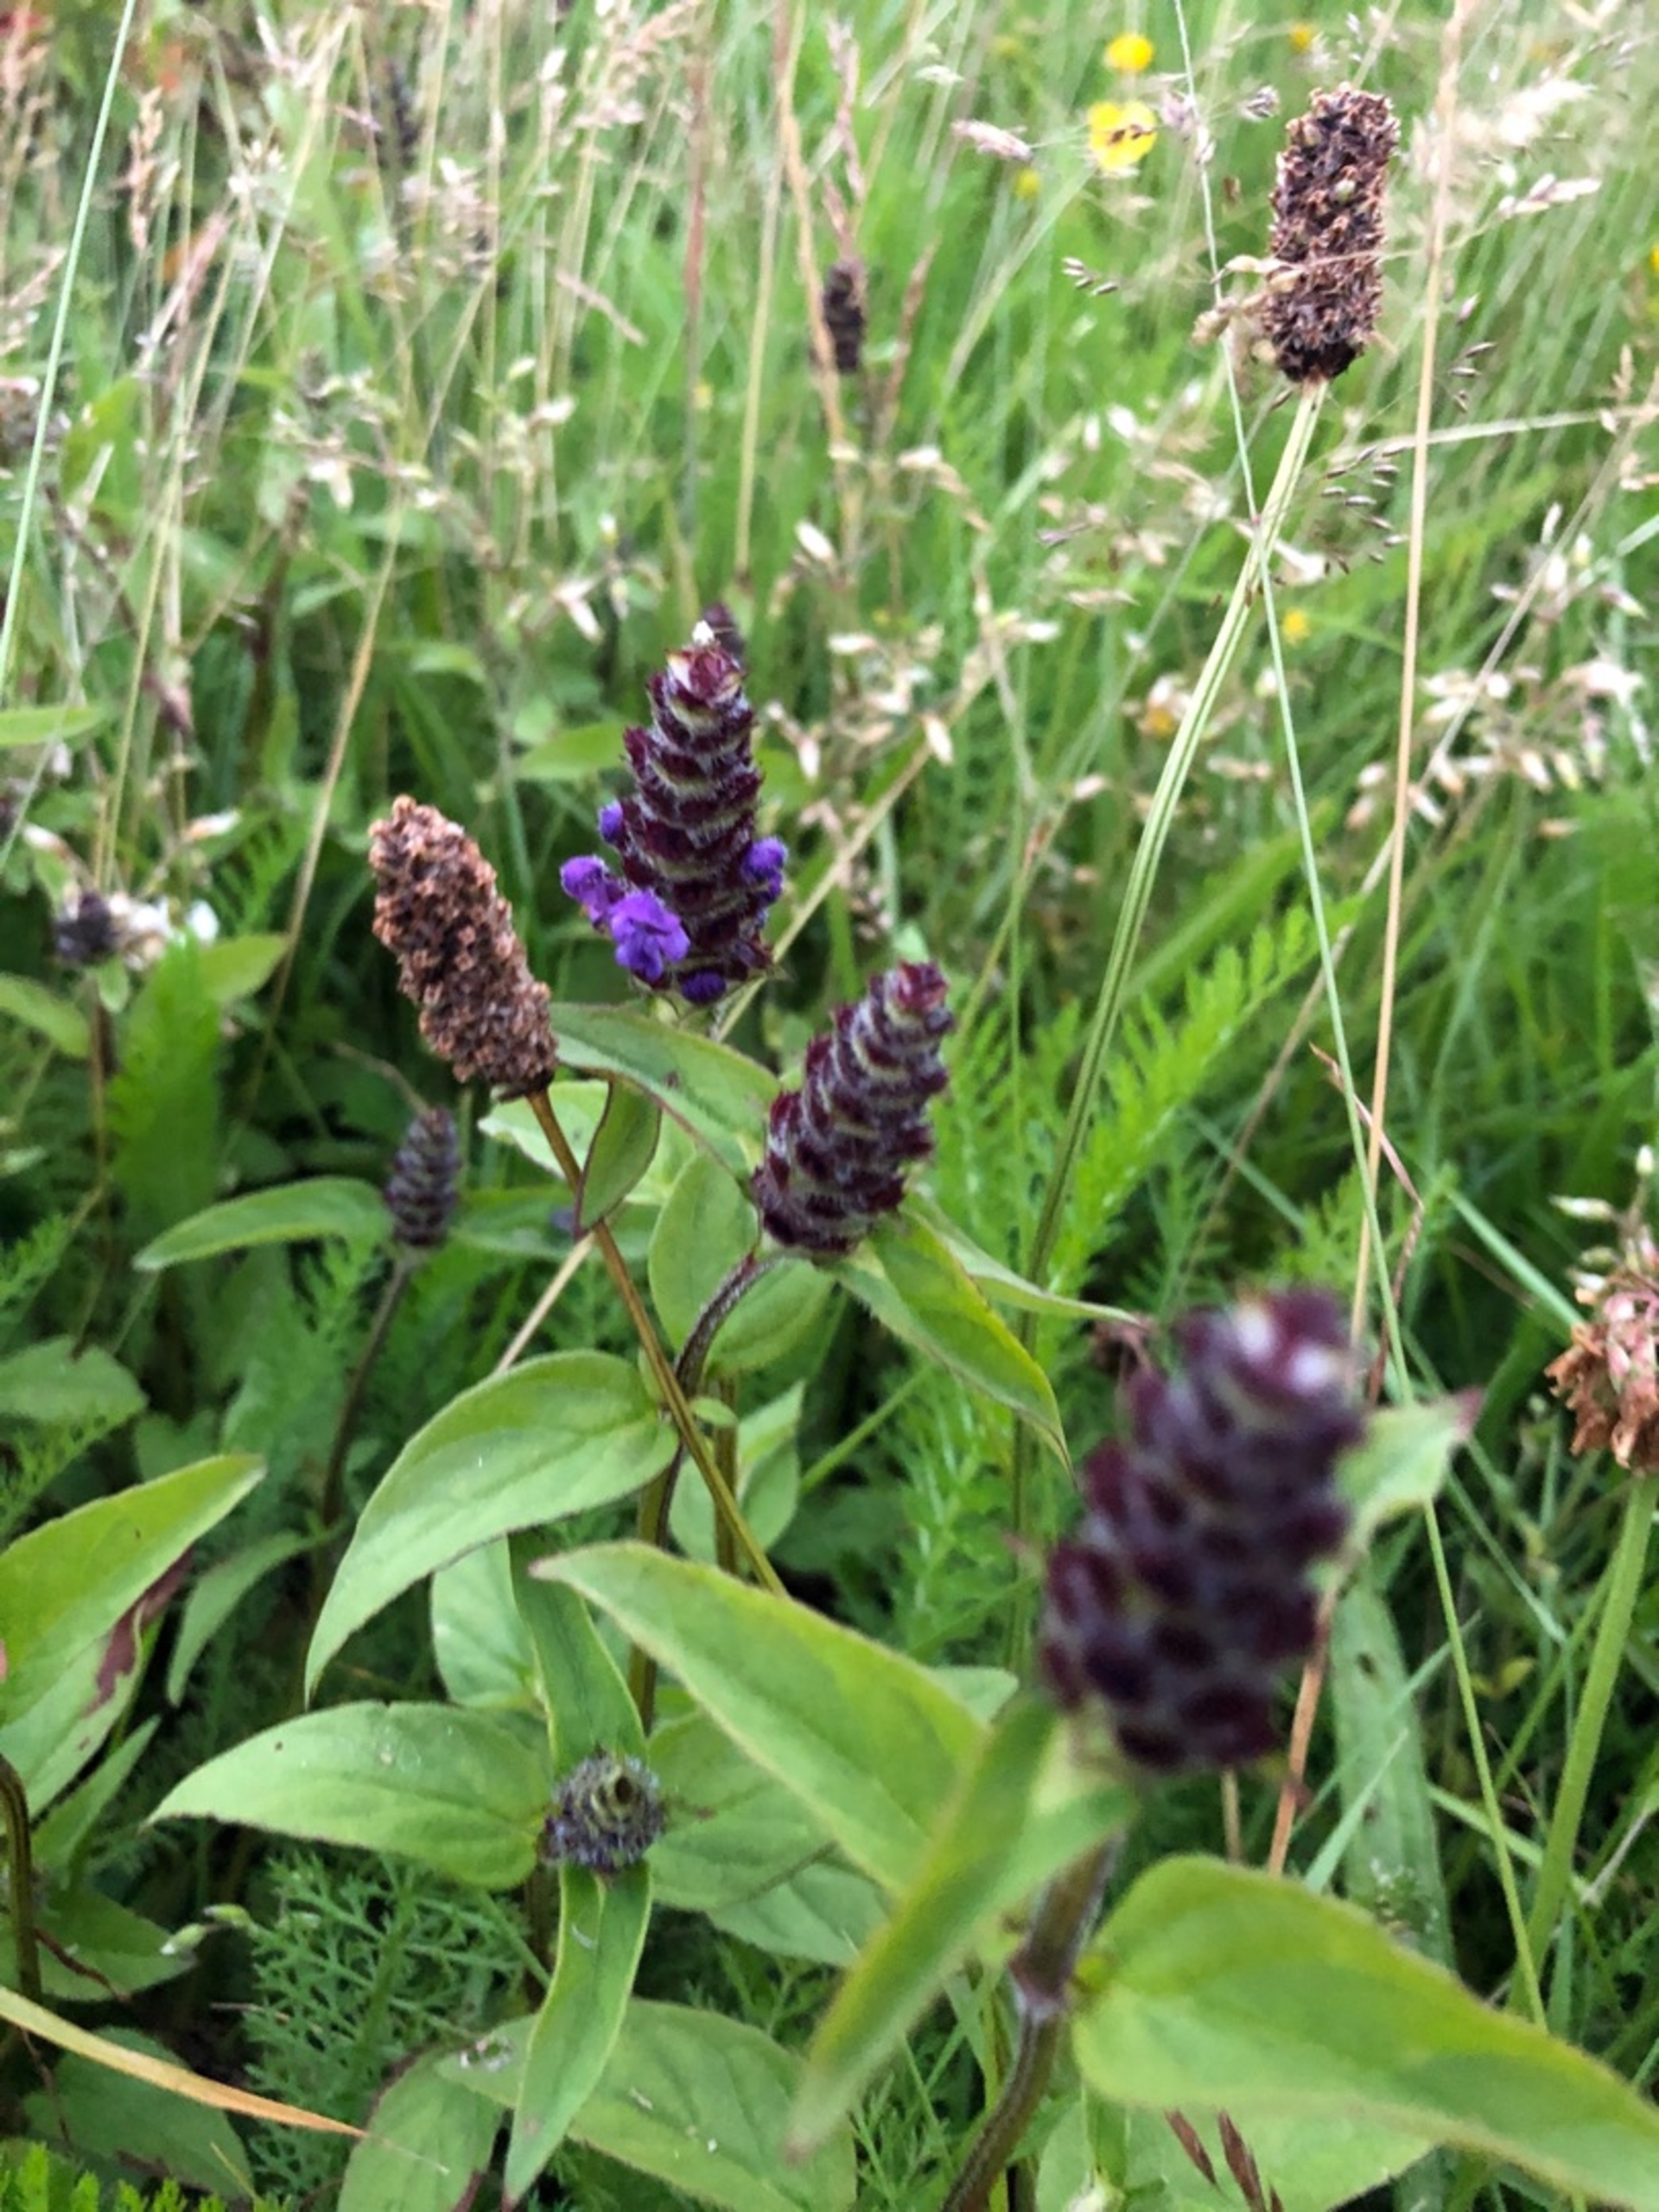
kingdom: Plantae
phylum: Tracheophyta
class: Magnoliopsida
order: Lamiales
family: Lamiaceae
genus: Prunella
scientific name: Prunella vulgaris
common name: Almindelig brunelle
